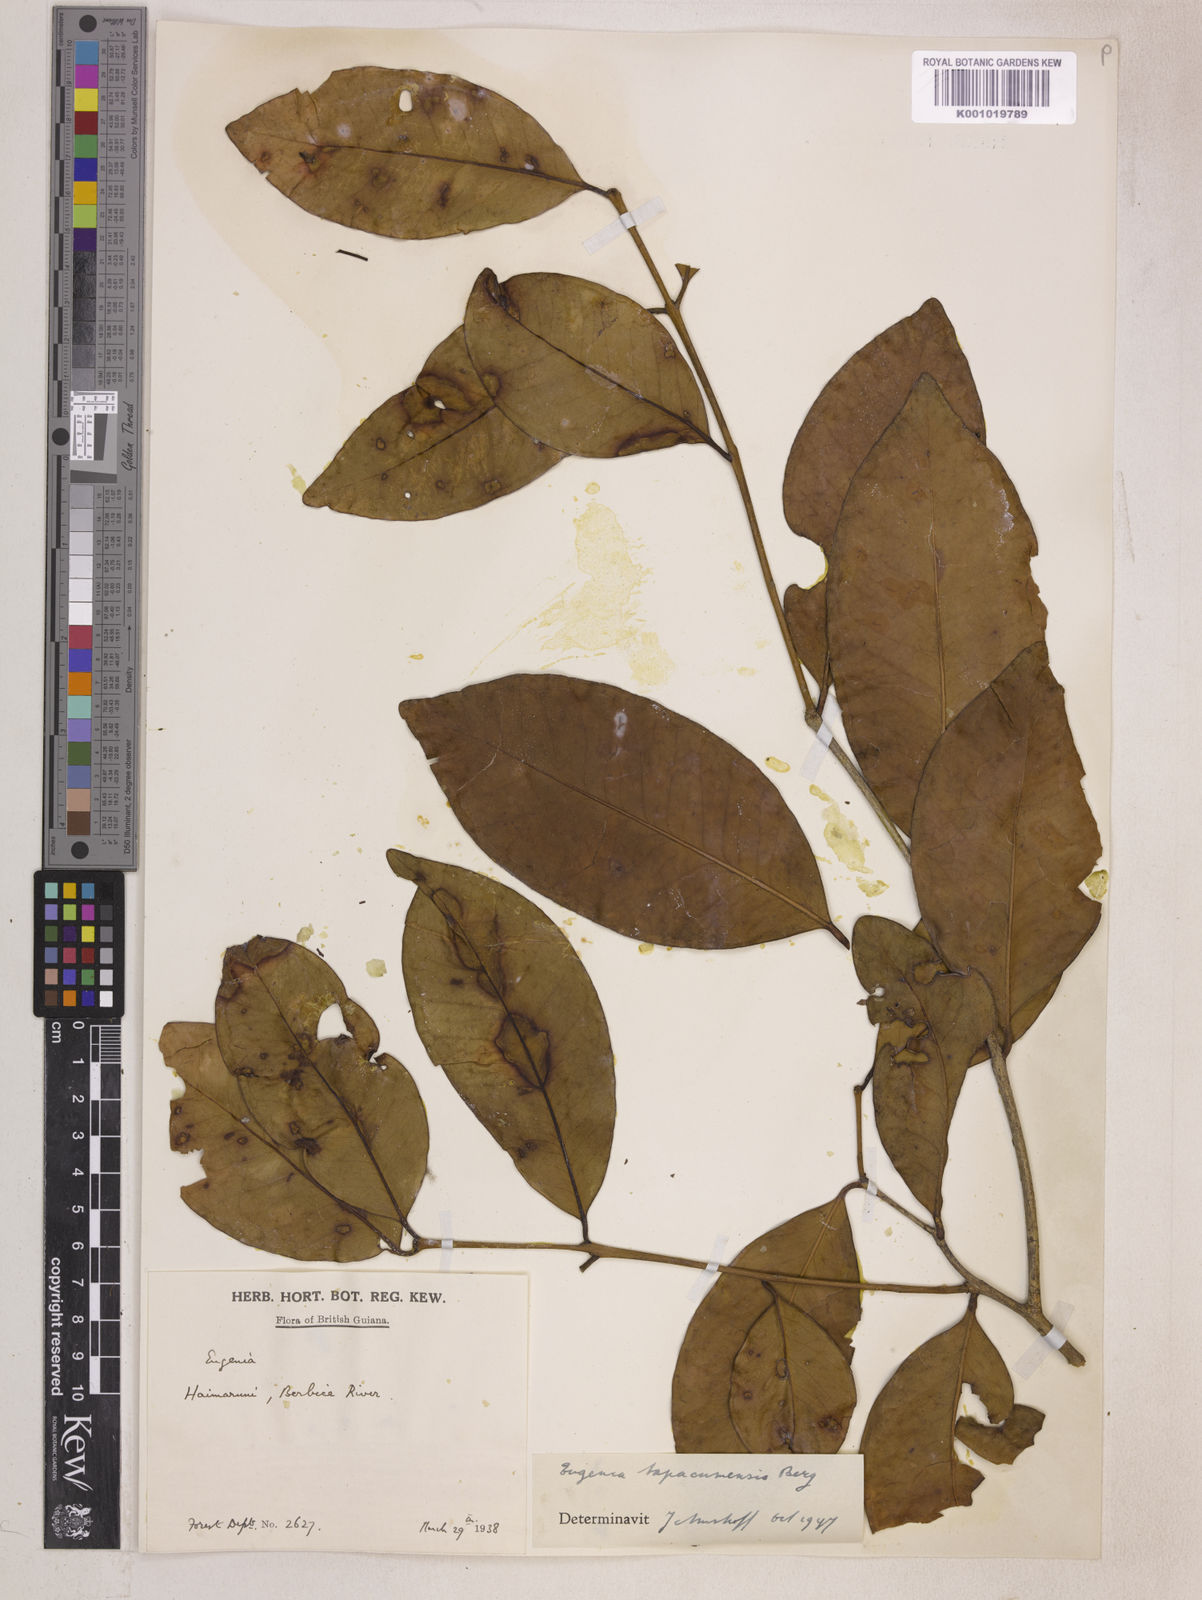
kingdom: Plantae
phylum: Tracheophyta
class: Magnoliopsida
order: Myrtales
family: Myrtaceae
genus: Eugenia
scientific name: Eugenia stictopetala
